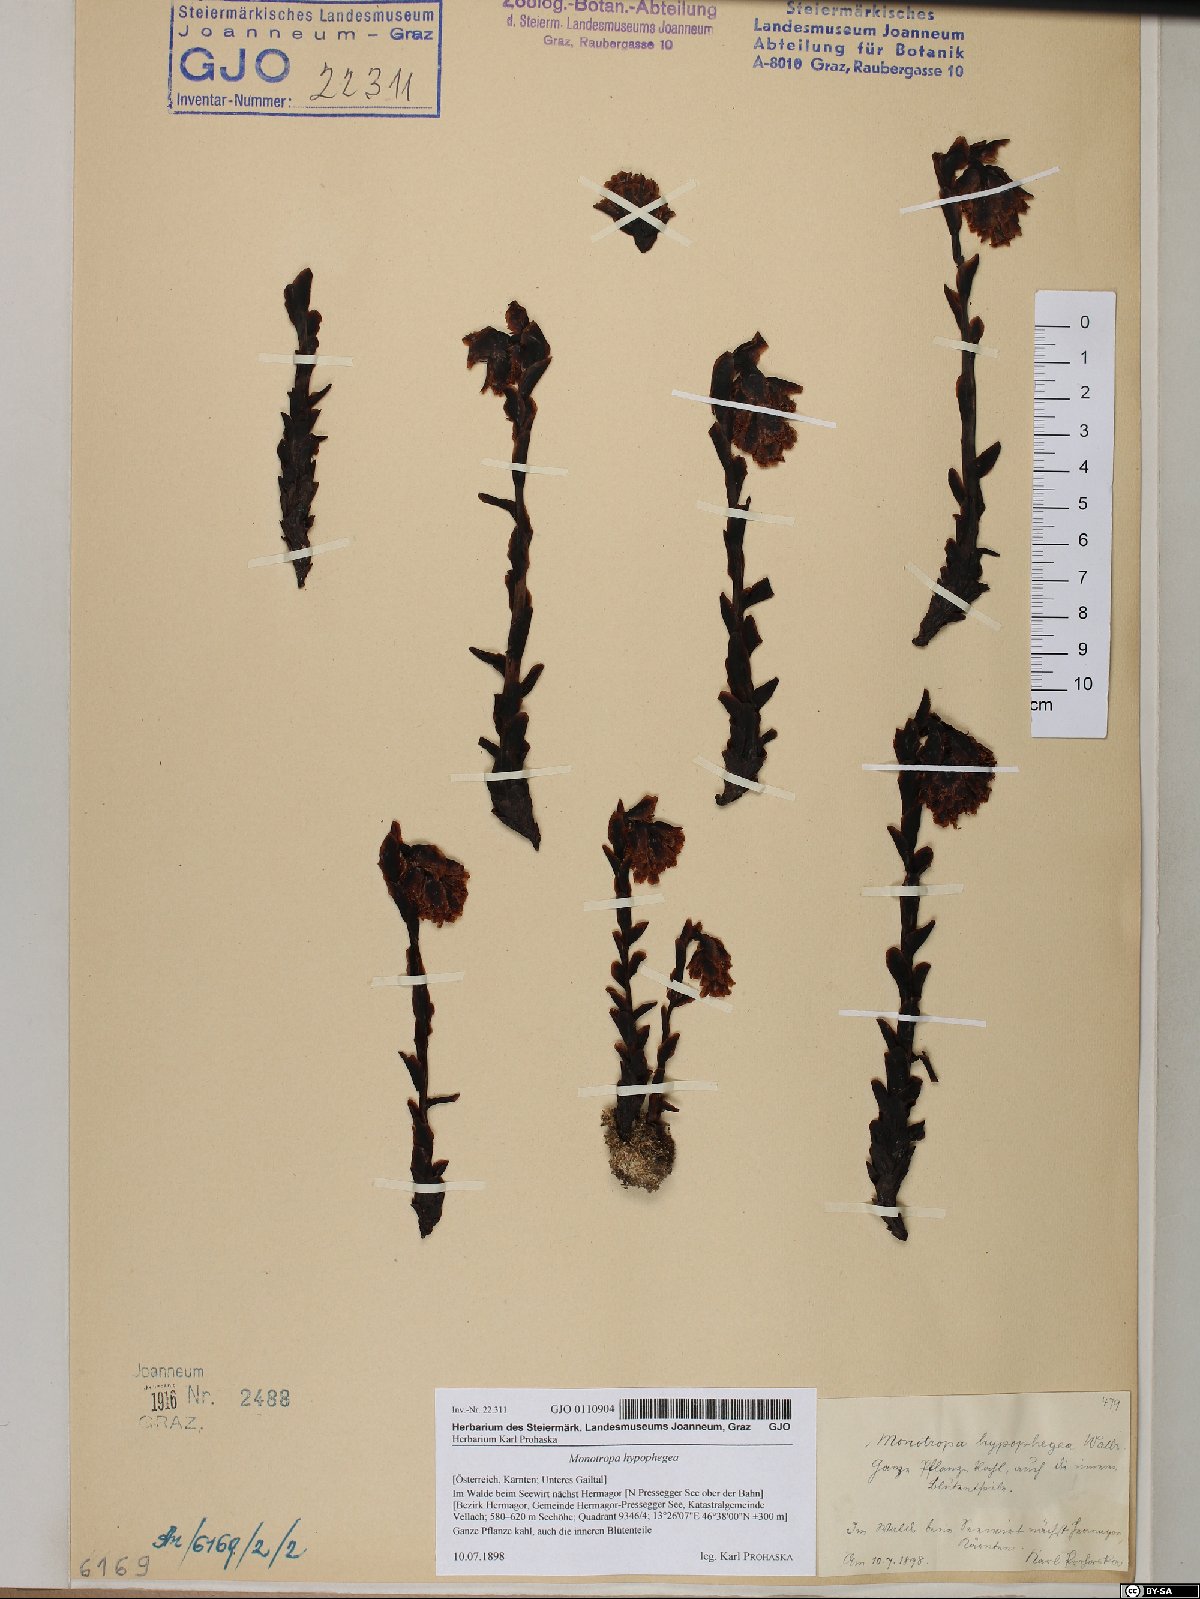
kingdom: Plantae
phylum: Tracheophyta
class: Magnoliopsida
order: Ericales
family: Ericaceae
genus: Hypopitys
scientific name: Hypopitys hypophegea
